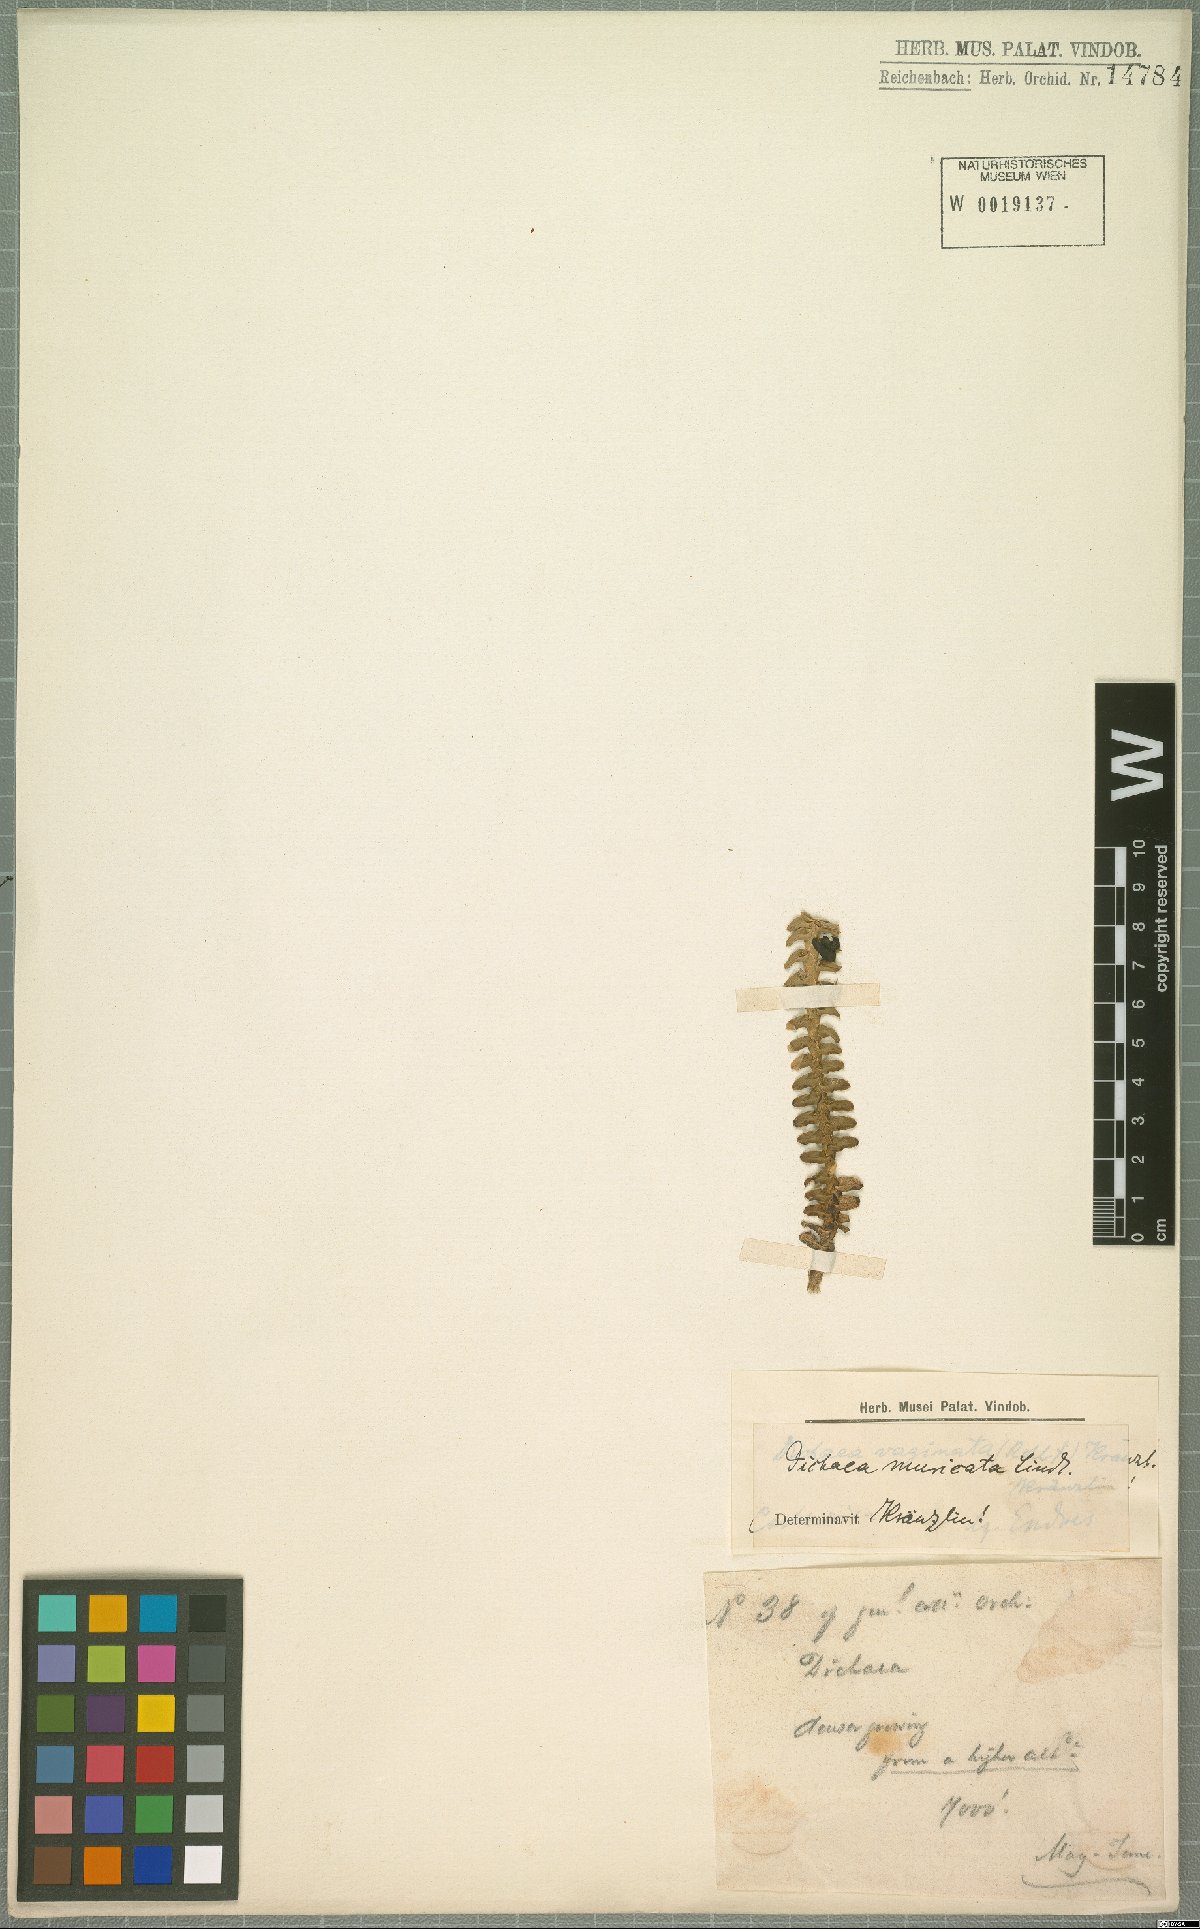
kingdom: Plantae
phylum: Tracheophyta
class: Liliopsida
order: Asparagales
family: Orchidaceae
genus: Dichaea
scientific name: Dichaea morrisii
